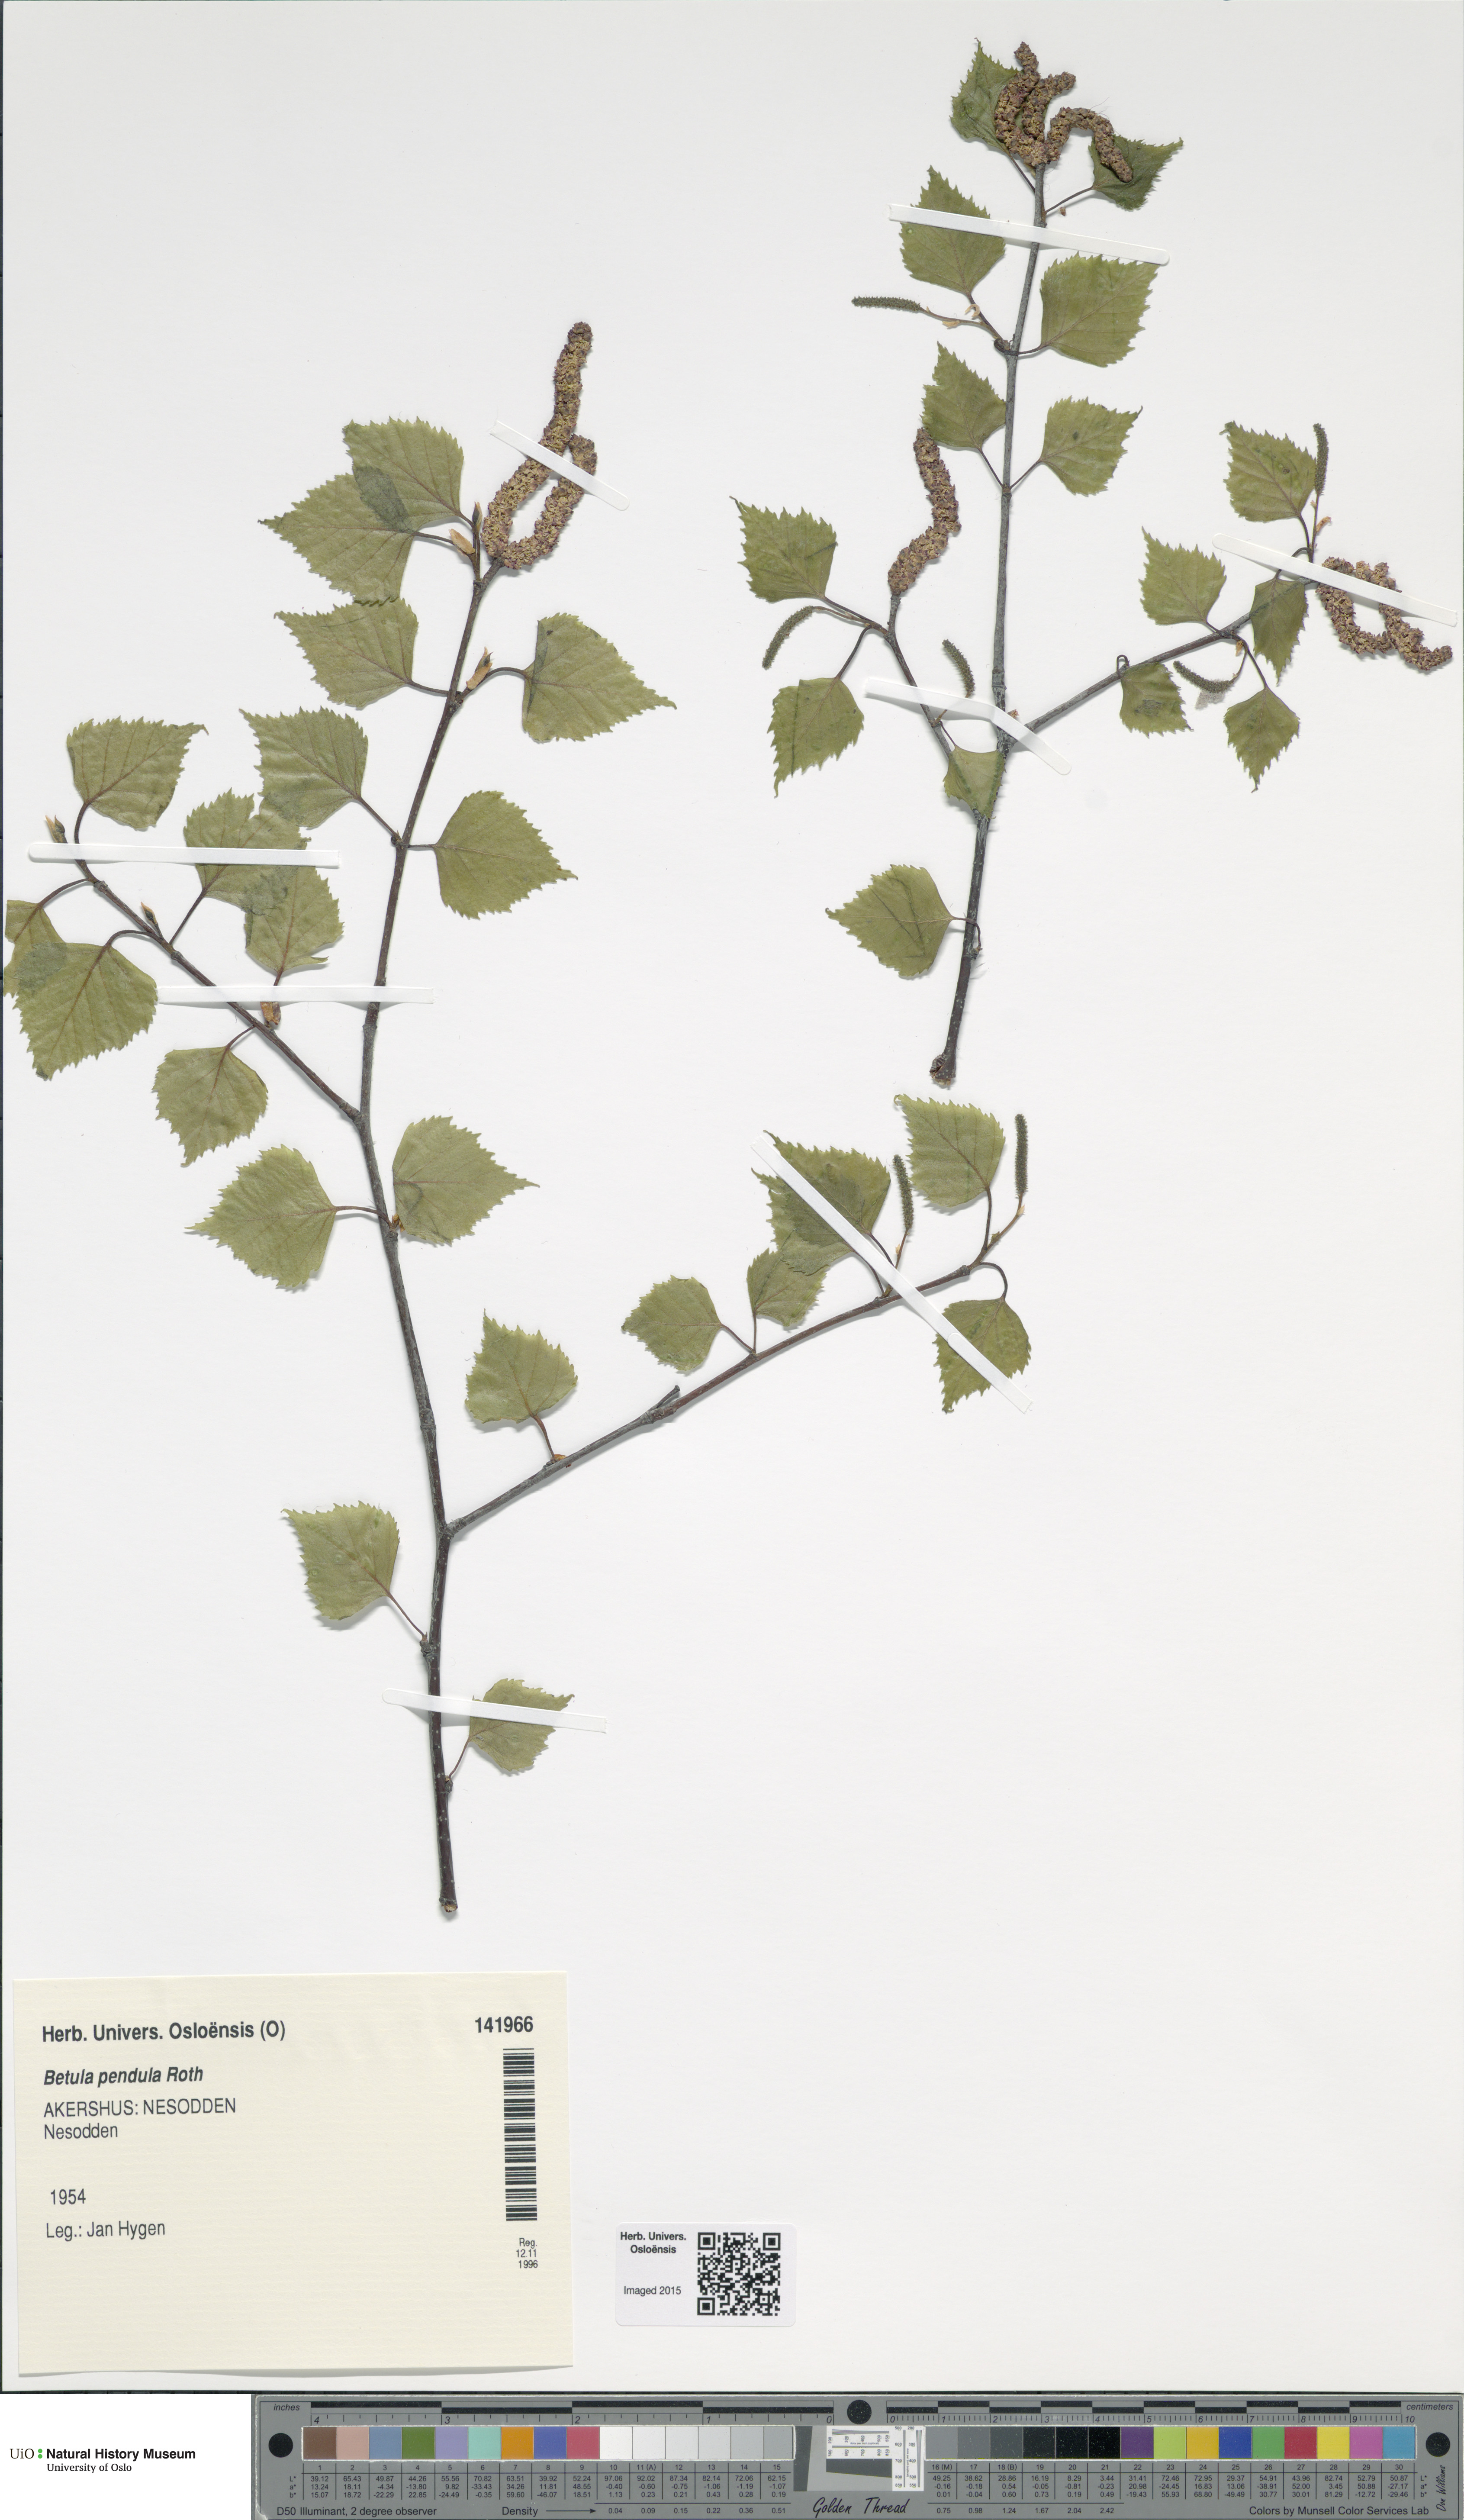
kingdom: Plantae
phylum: Tracheophyta
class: Magnoliopsida
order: Fagales
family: Betulaceae
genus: Betula
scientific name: Betula pendula
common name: Silver birch
